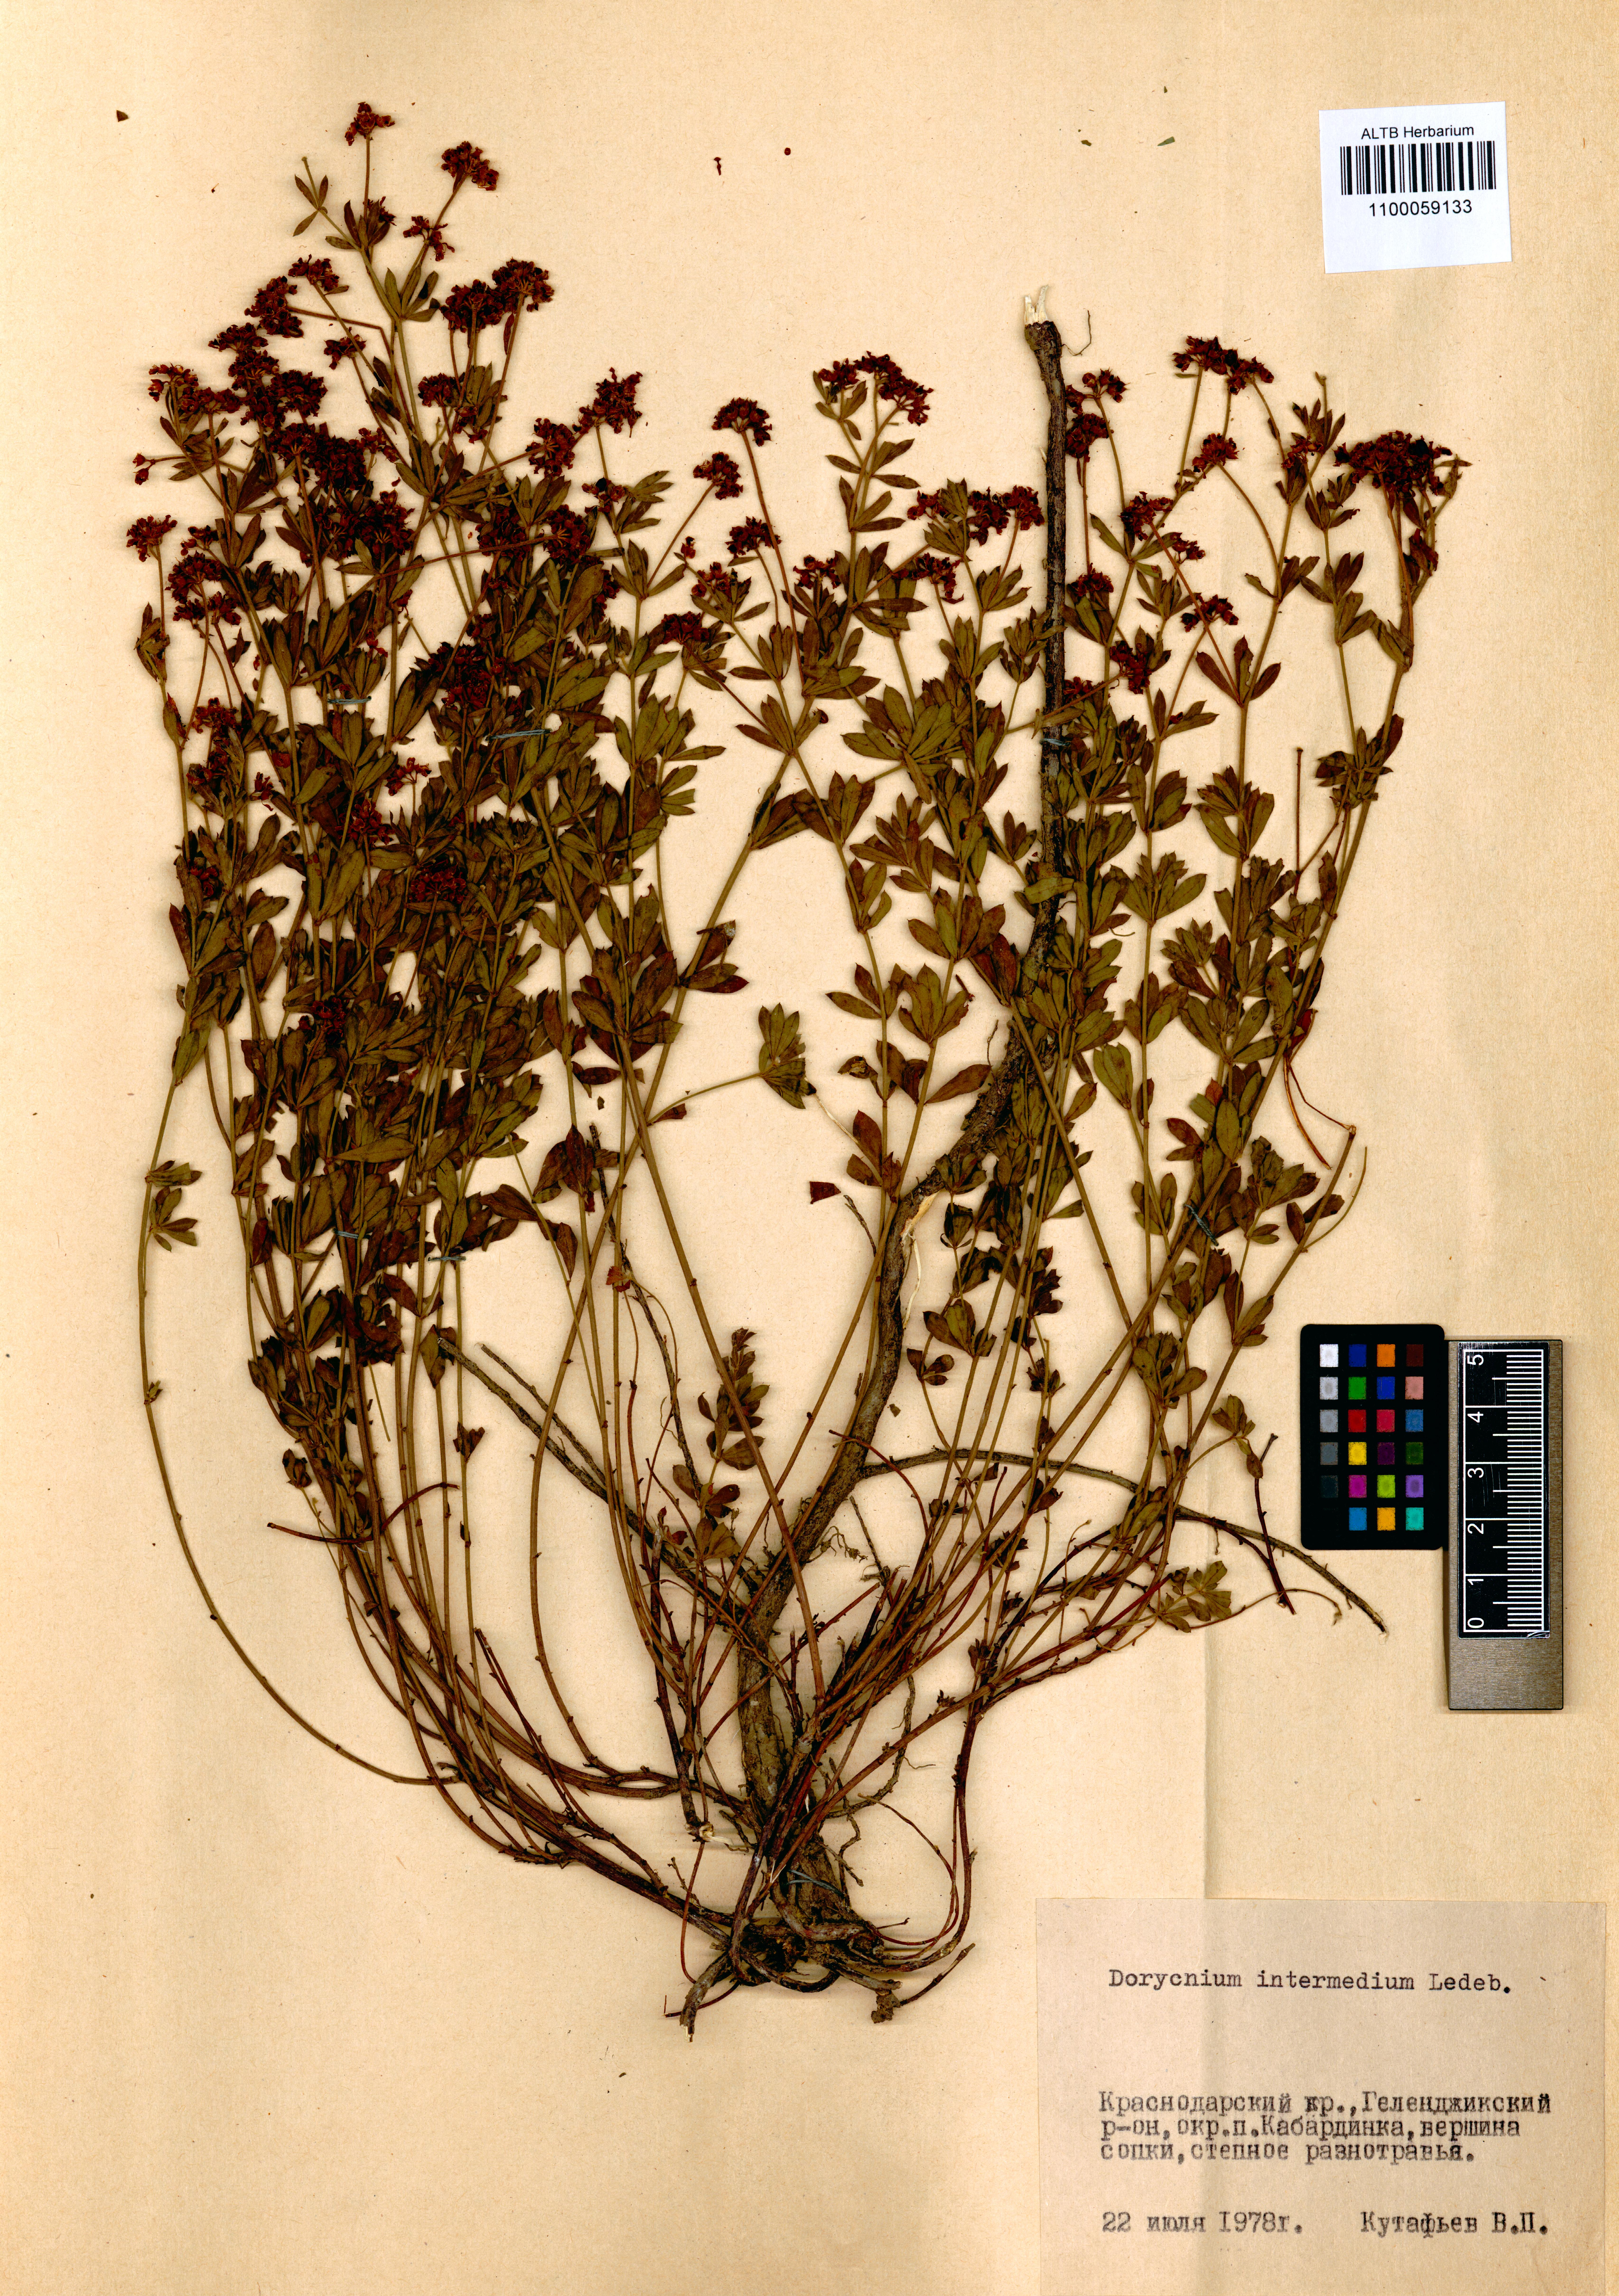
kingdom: Plantae
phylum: Tracheophyta
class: Magnoliopsida
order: Fabales
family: Fabaceae
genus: Lotus
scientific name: Lotus herbaceus
